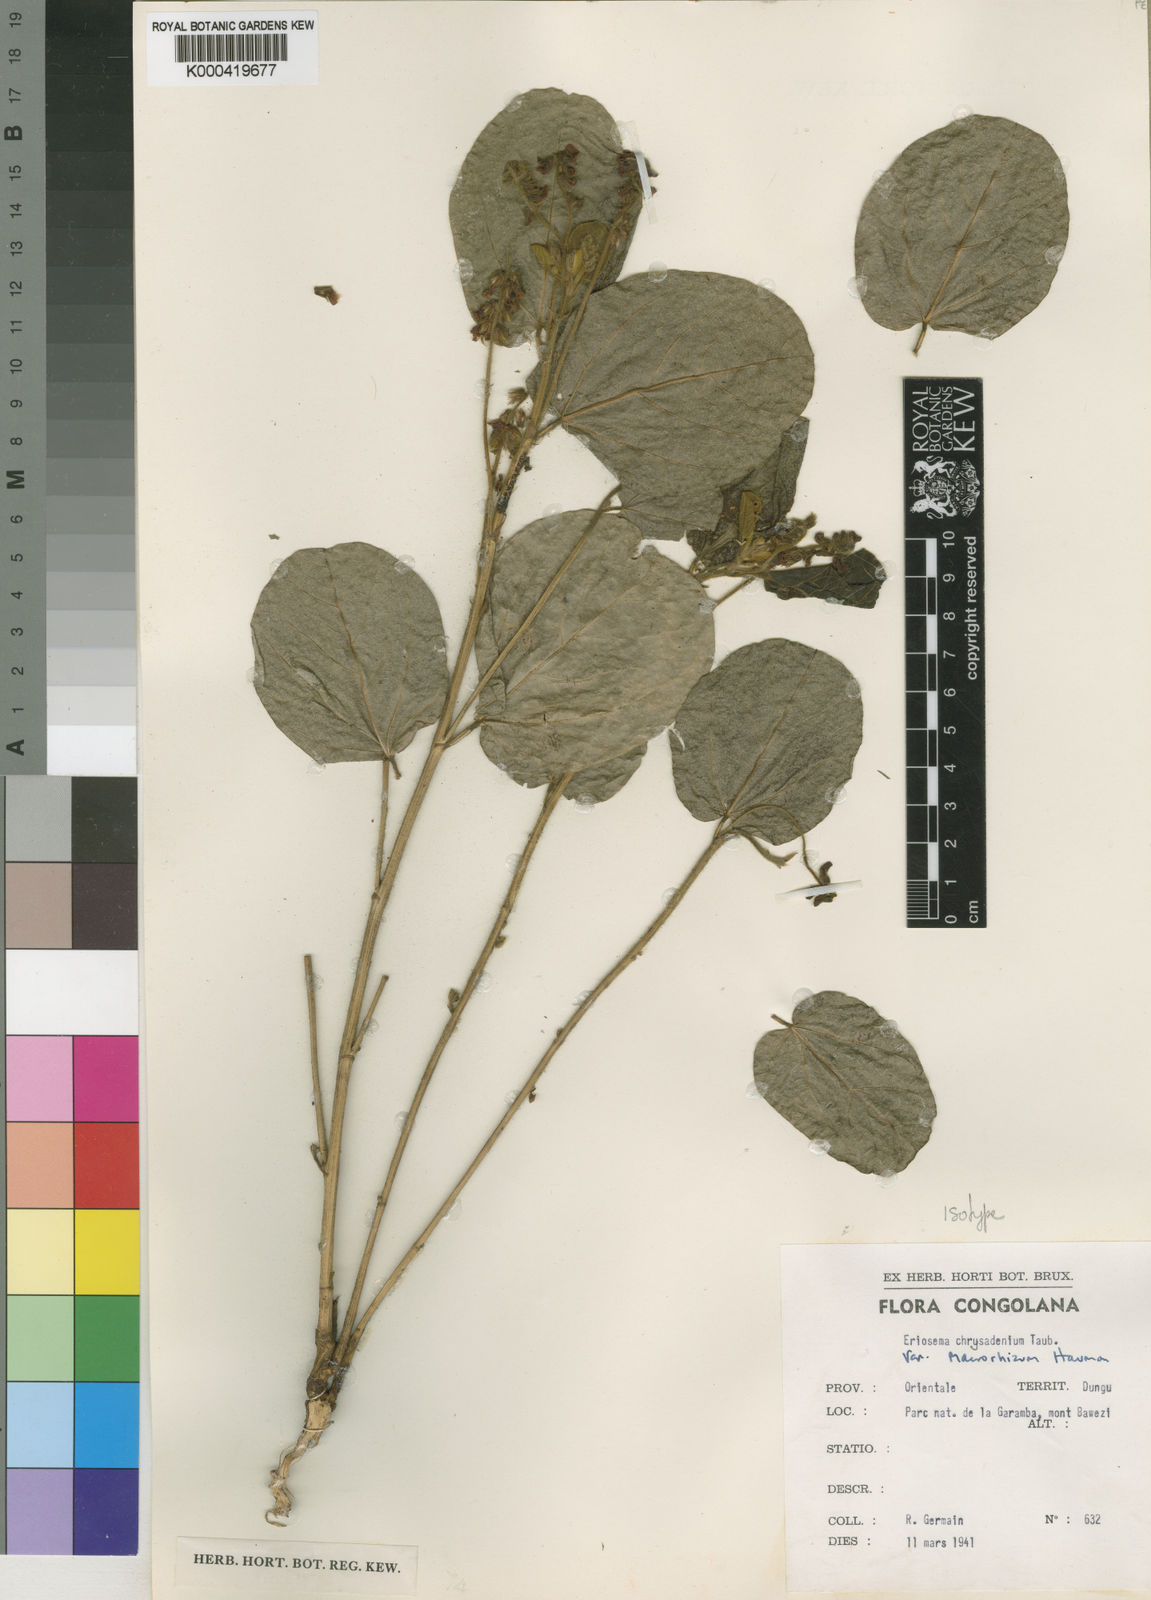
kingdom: Plantae
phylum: Tracheophyta
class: Magnoliopsida
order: Fabales
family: Fabaceae
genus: Eriosema
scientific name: Eriosema chrysadenium
